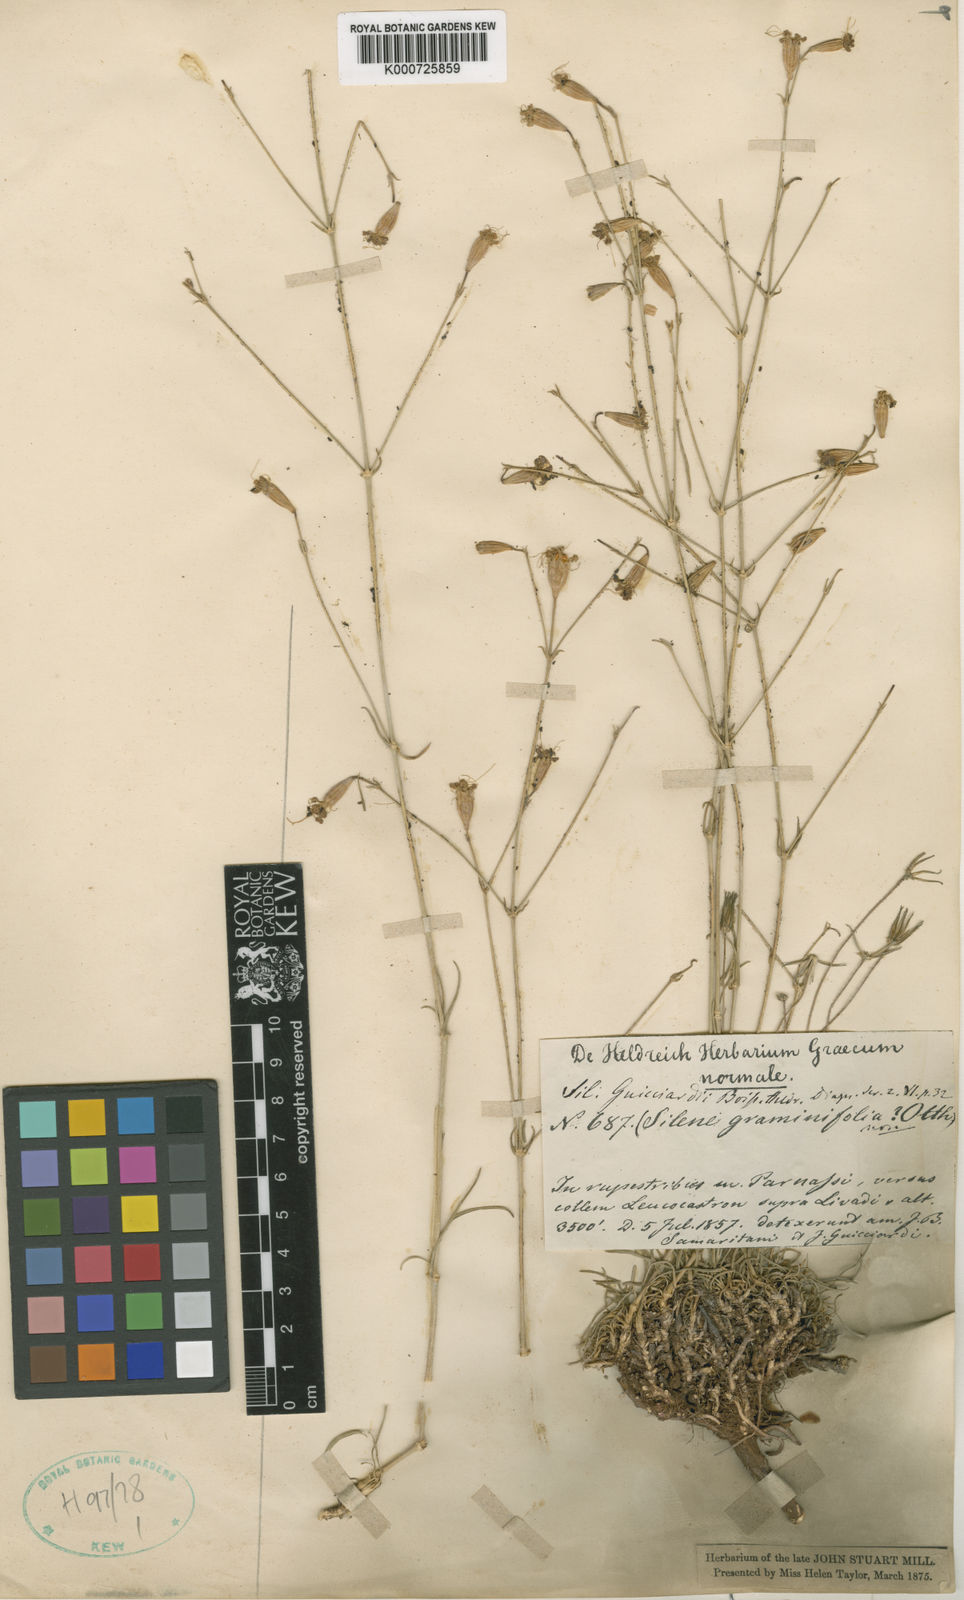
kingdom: Plantae
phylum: Tracheophyta
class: Magnoliopsida
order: Caryophyllales
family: Caryophyllaceae
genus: Silene
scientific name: Silene marschallii
